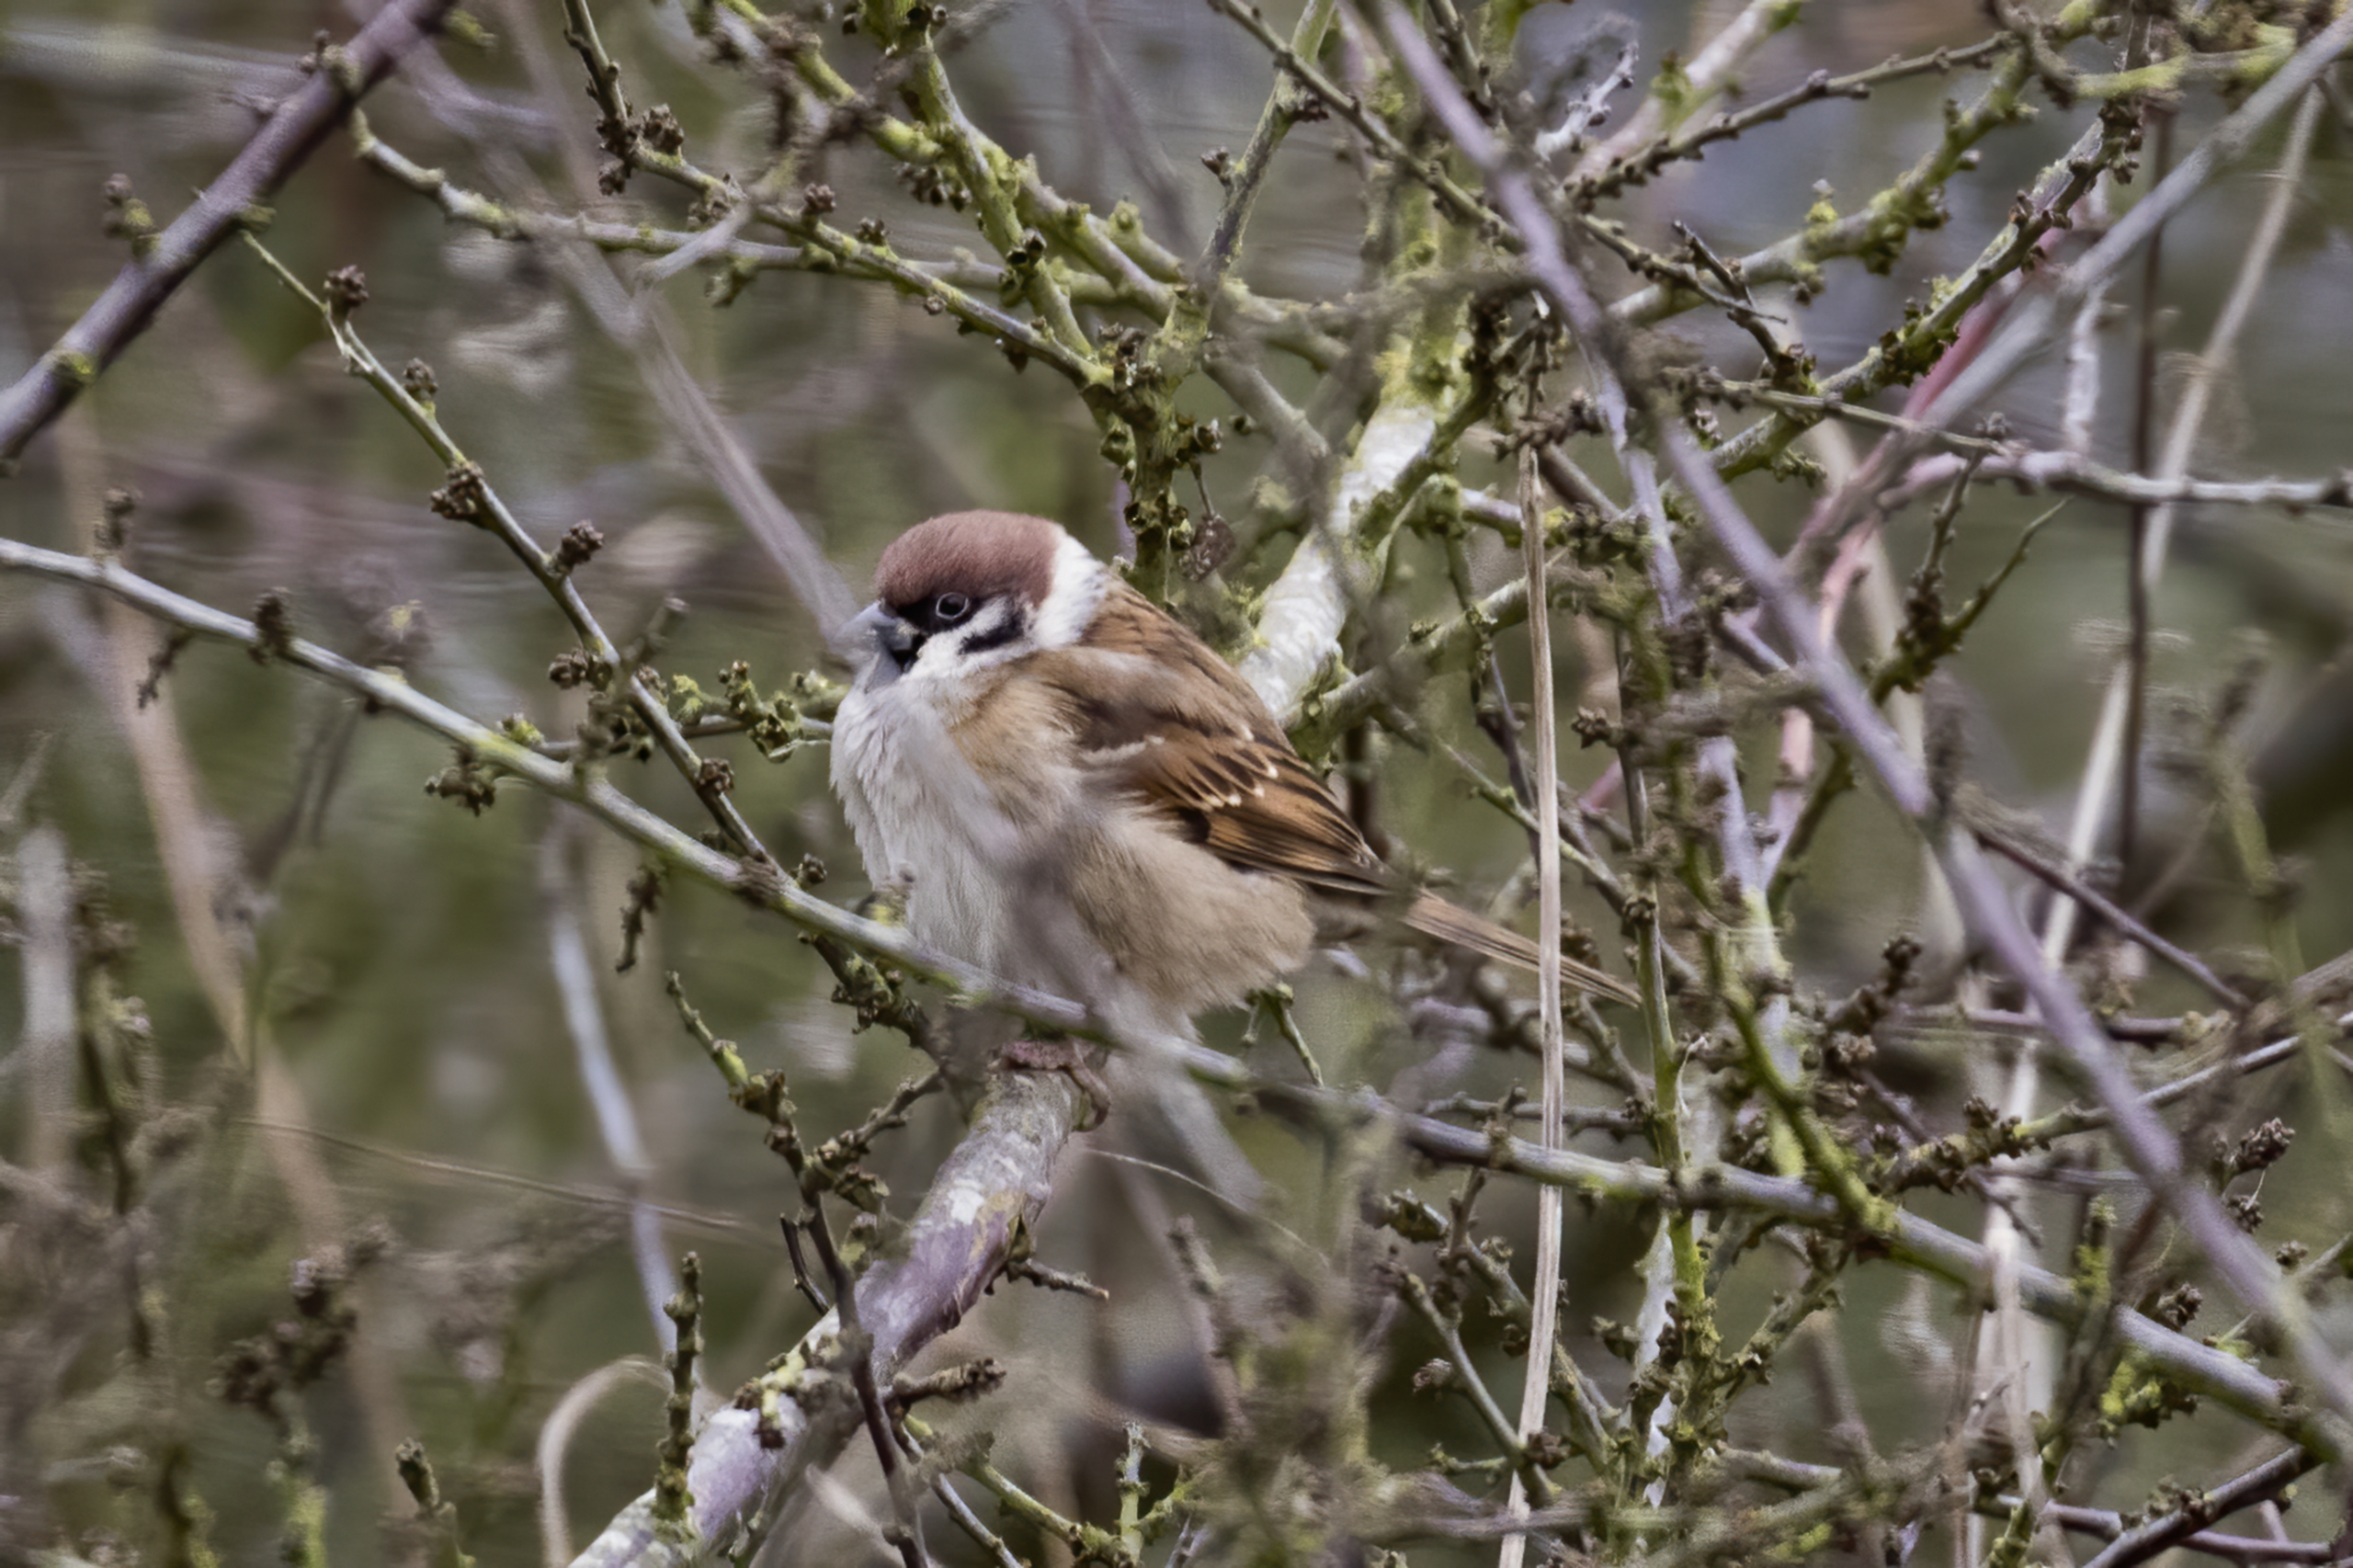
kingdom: Animalia
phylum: Chordata
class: Aves
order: Passeriformes
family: Passeridae
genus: Passer
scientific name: Passer montanus
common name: Skovspurv
